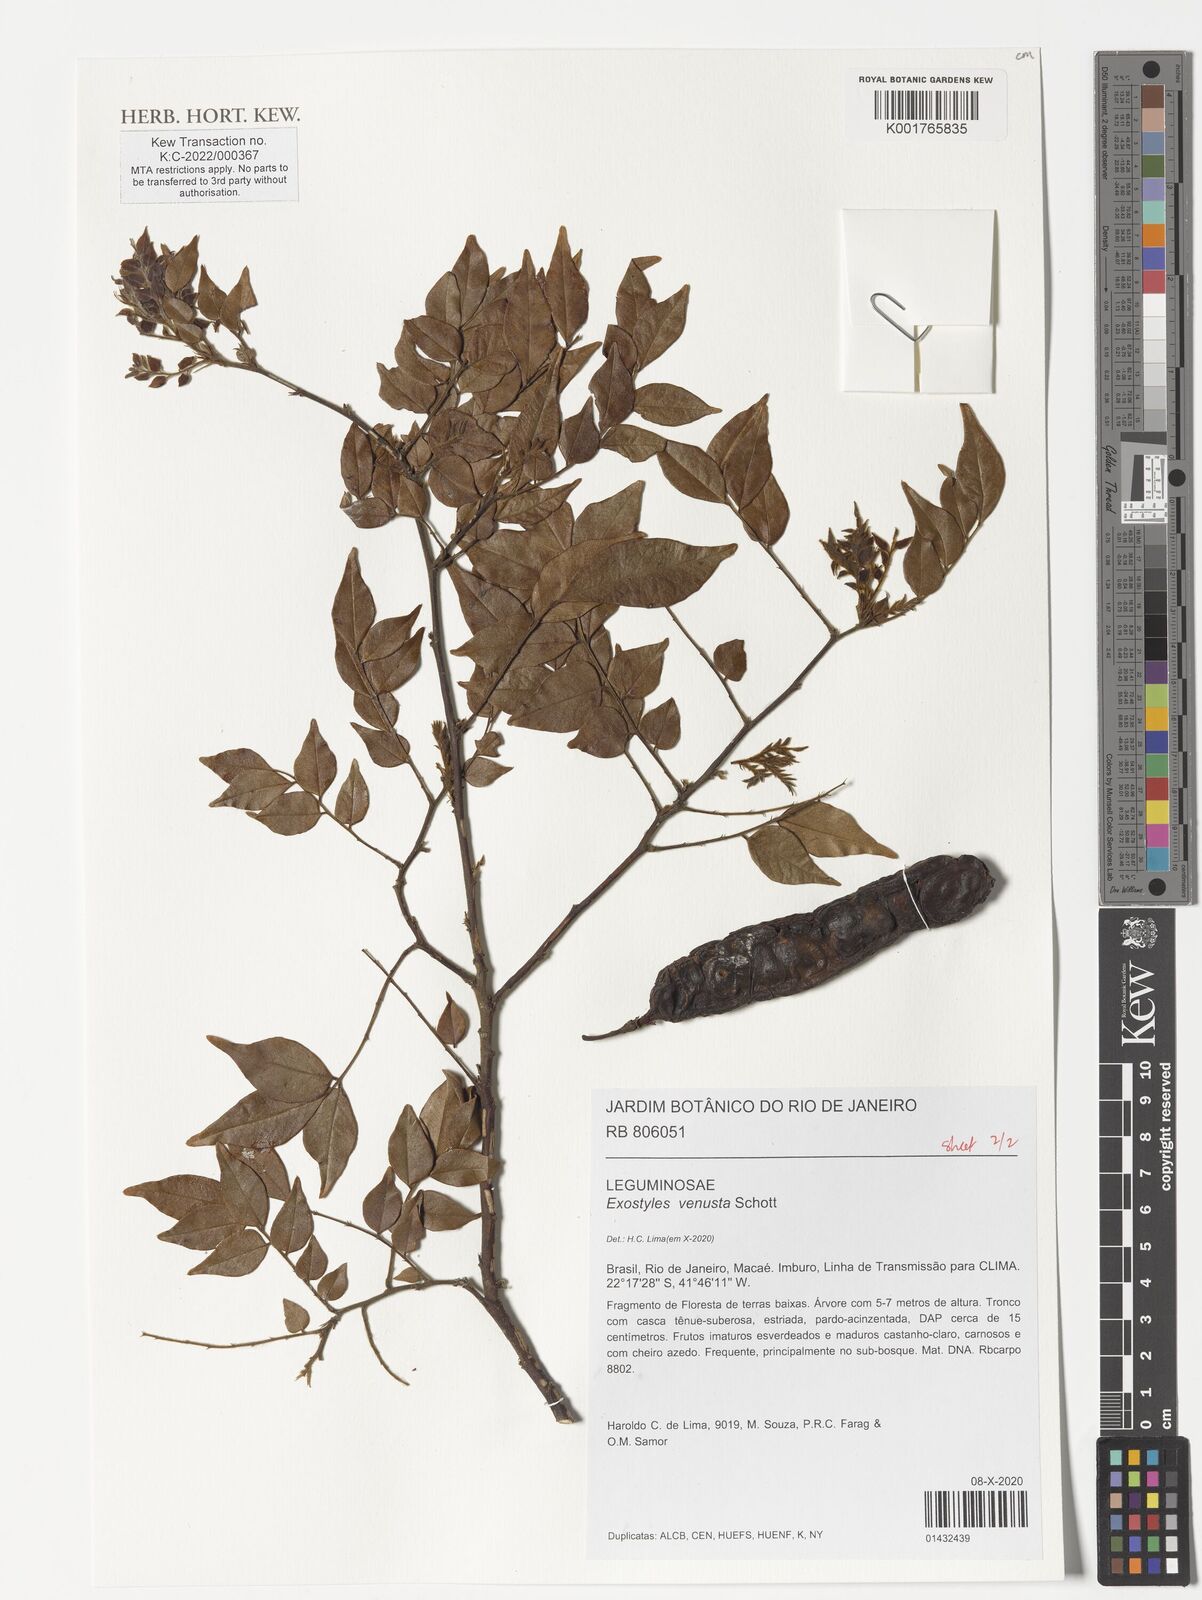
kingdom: Plantae
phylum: Tracheophyta
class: Magnoliopsida
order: Fabales
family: Fabaceae
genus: Exostyles
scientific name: Exostyles venusta
